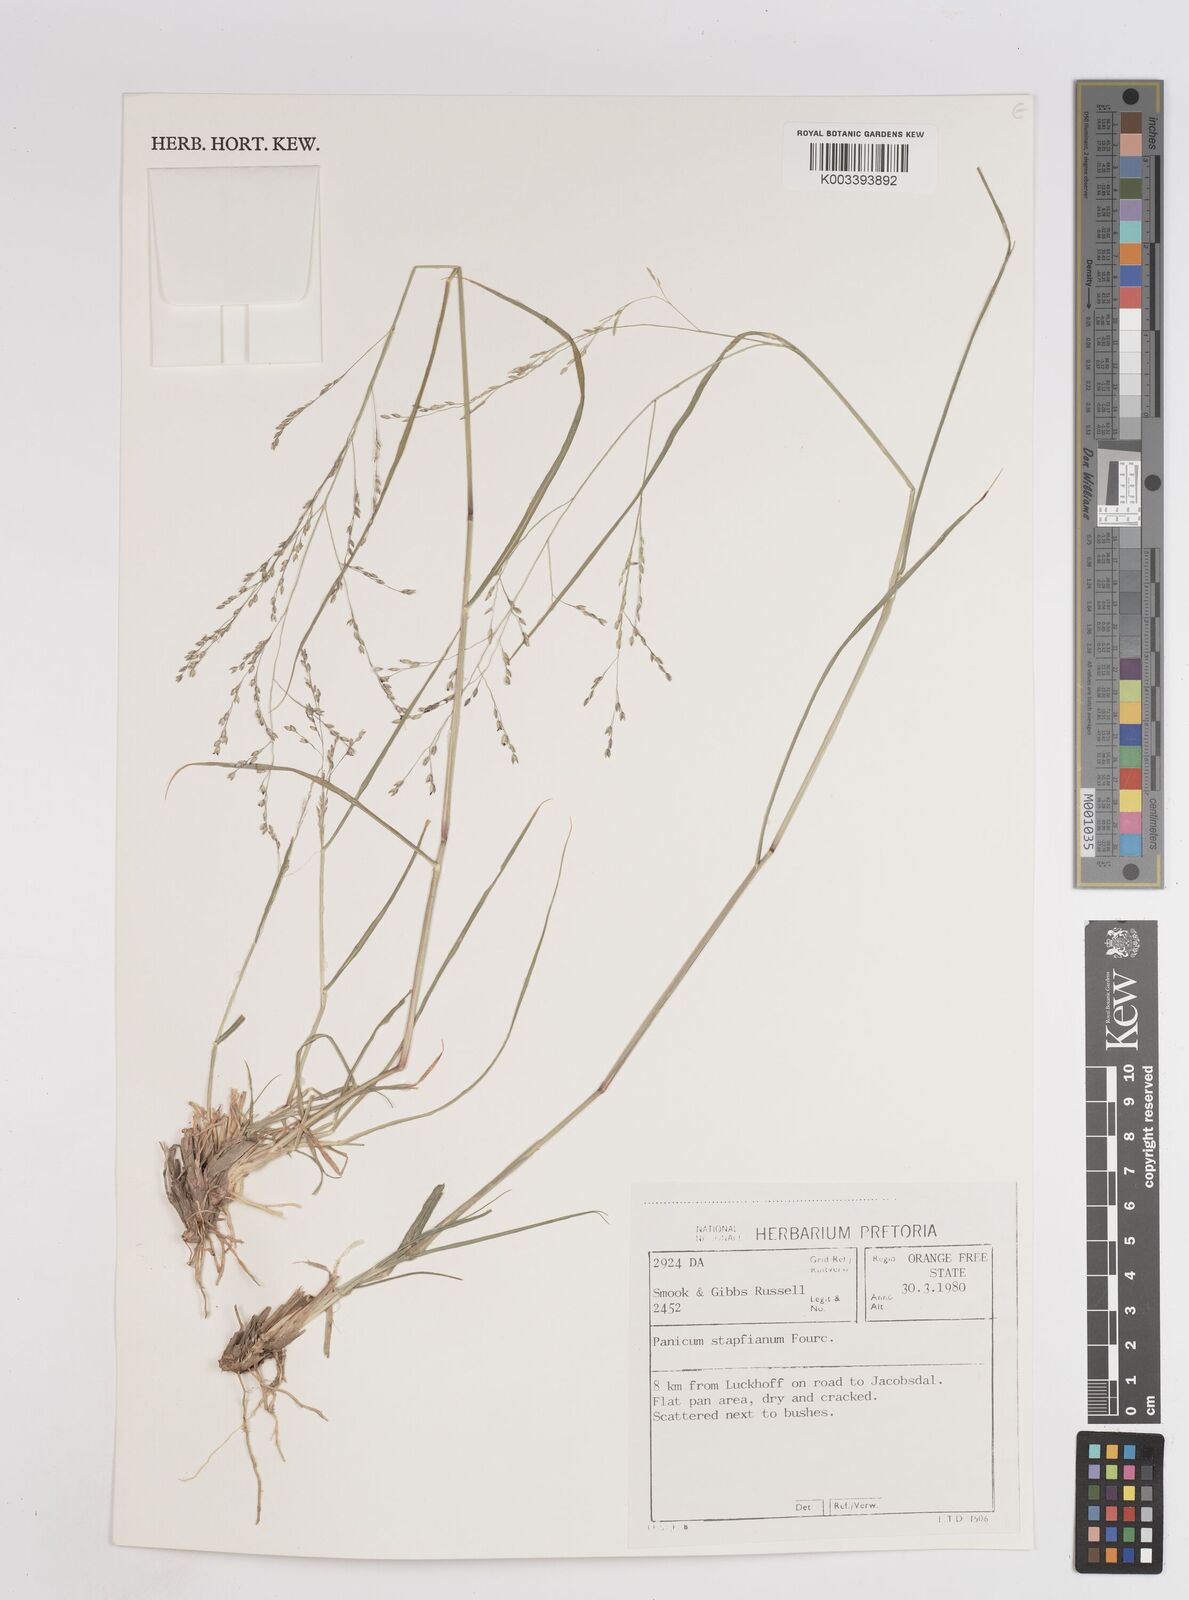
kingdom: Plantae
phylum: Tracheophyta
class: Liliopsida
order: Poales
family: Poaceae
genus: Panicum
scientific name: Panicum stapfianum
